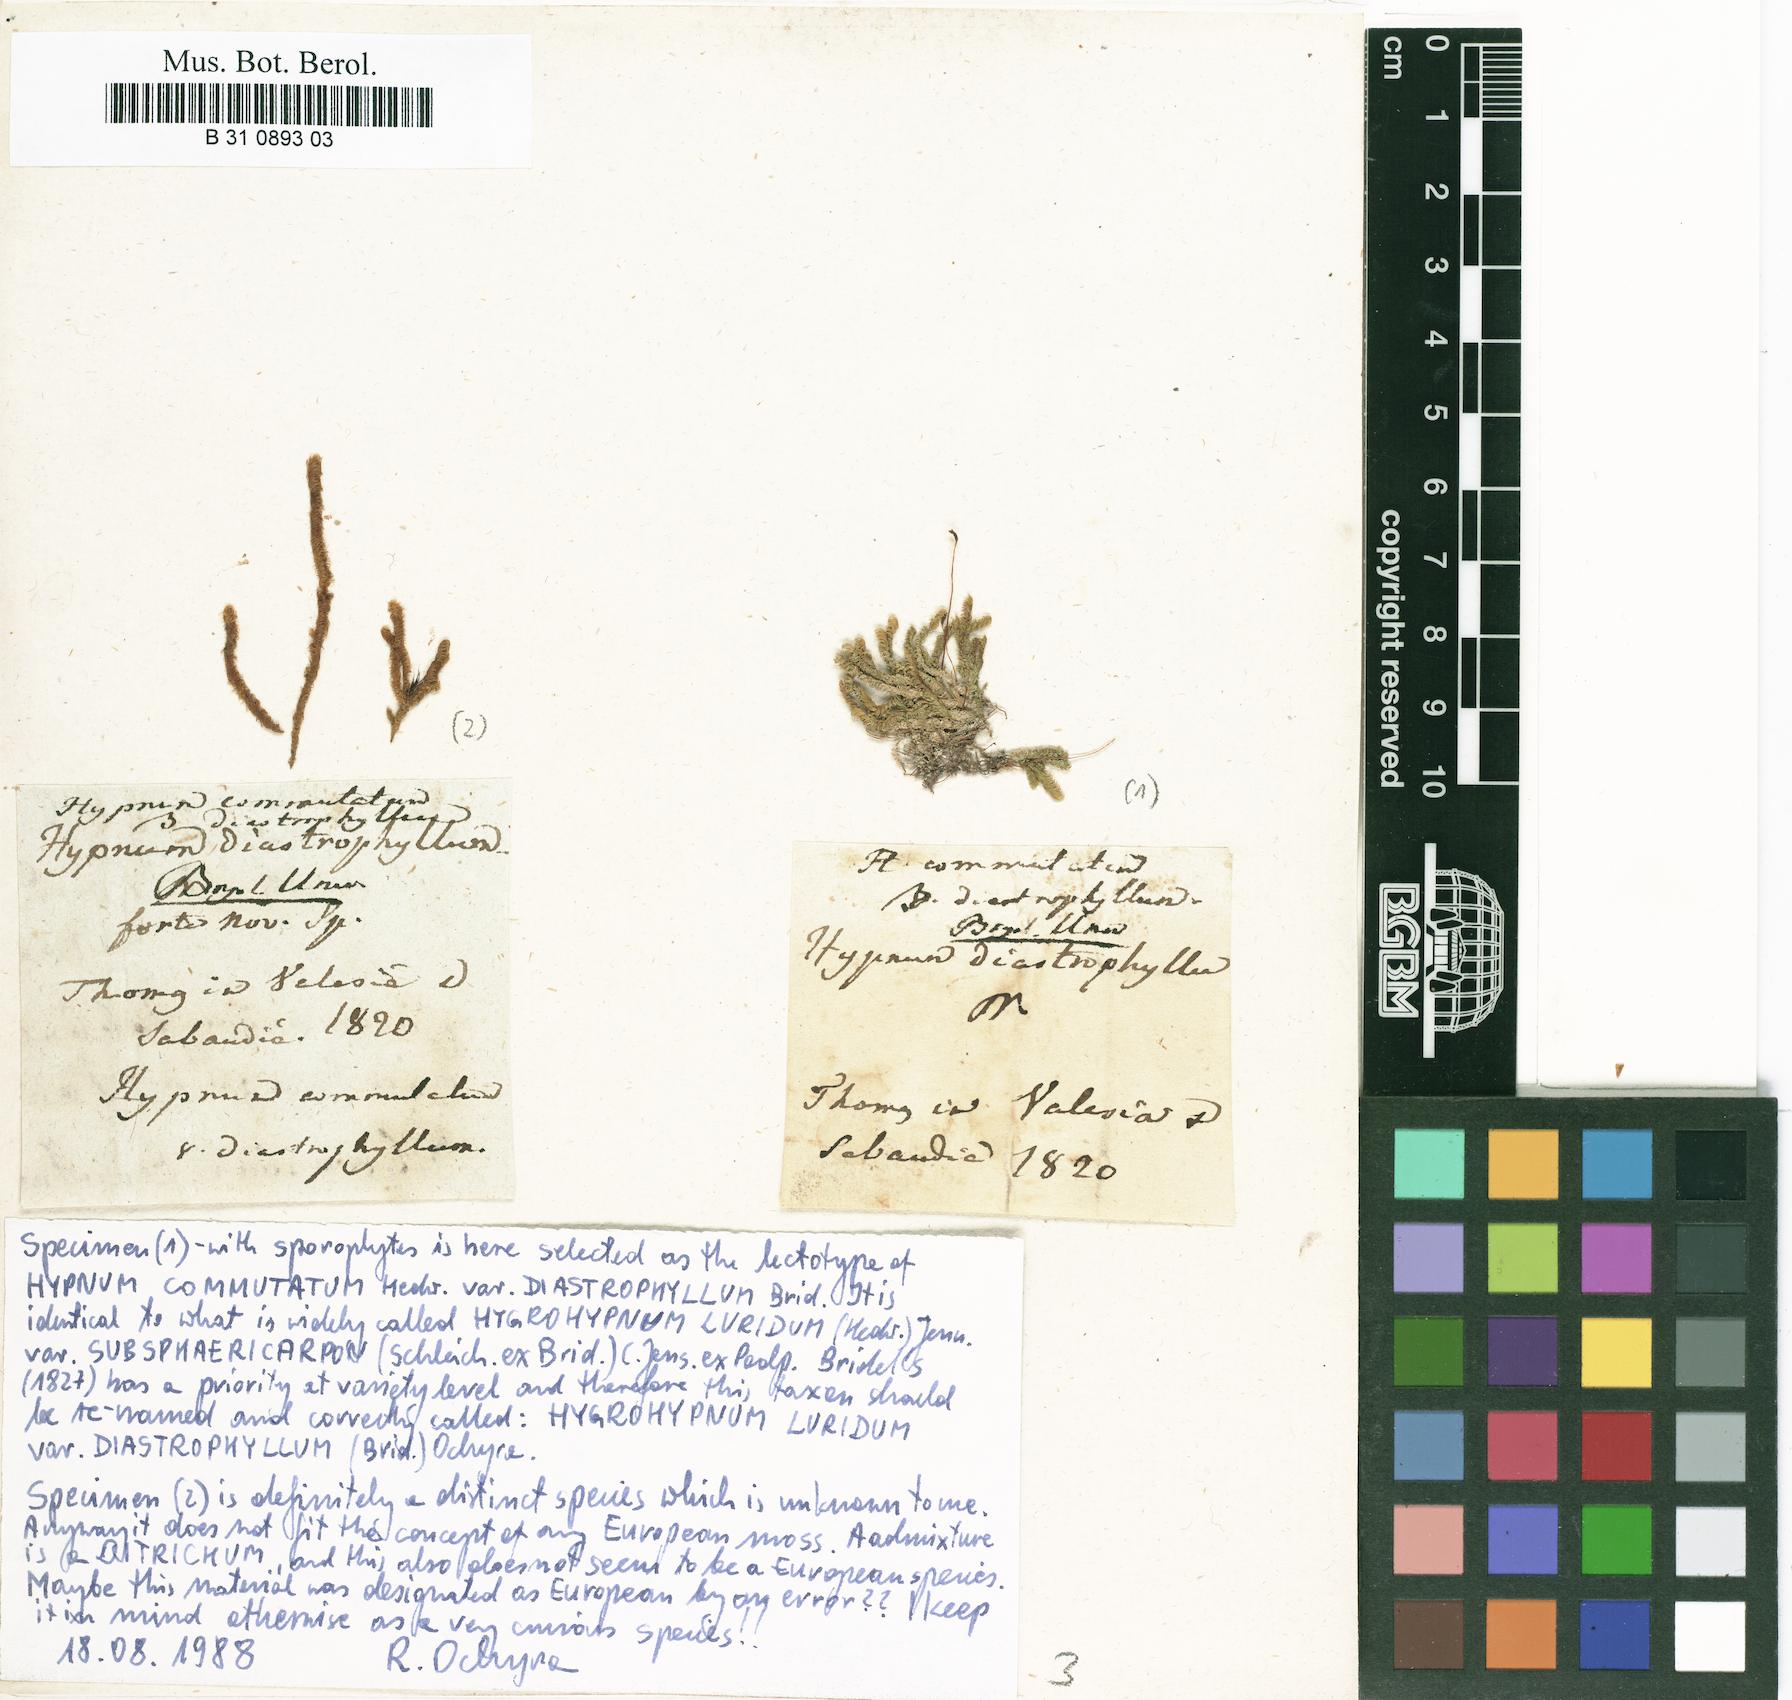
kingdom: Plantae
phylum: Bryophyta
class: Bryopsida
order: Hypnales
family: Amblystegiaceae
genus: Palustriella
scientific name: Palustriella commutata
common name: Curled hook-moss
